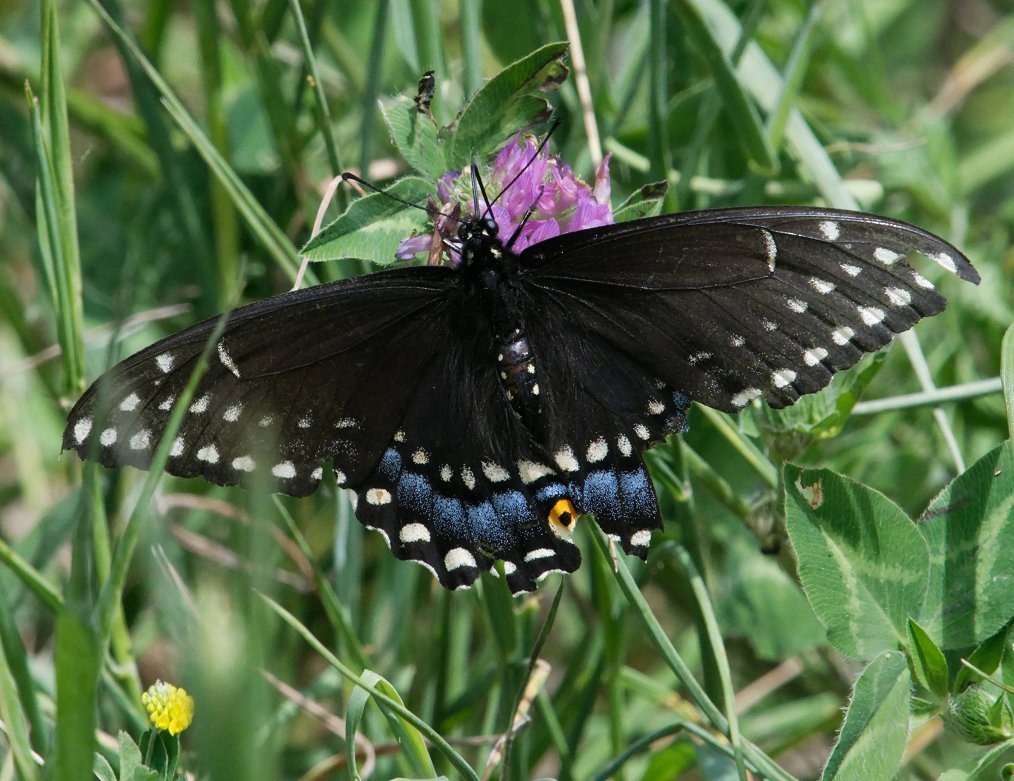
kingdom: Animalia
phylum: Arthropoda
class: Insecta
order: Lepidoptera
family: Papilionidae
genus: Papilio
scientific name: Papilio polyxenes
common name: Black Swallowtail
